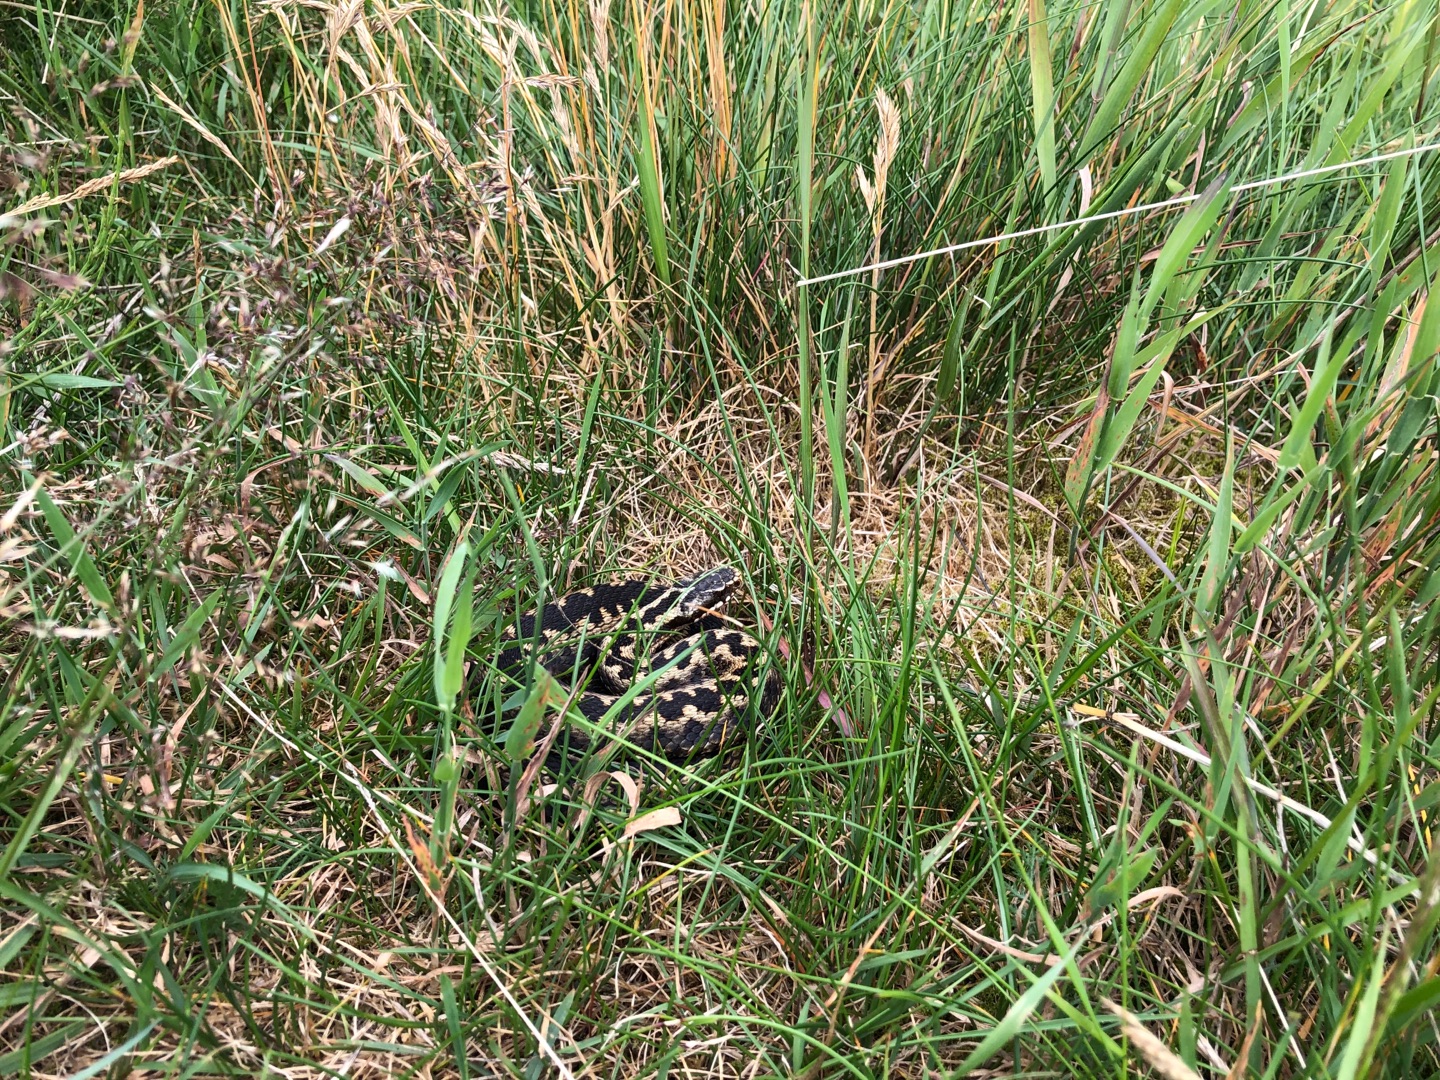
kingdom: Animalia
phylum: Chordata
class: Squamata
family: Viperidae
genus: Vipera
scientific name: Vipera berus
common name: Hugorm
